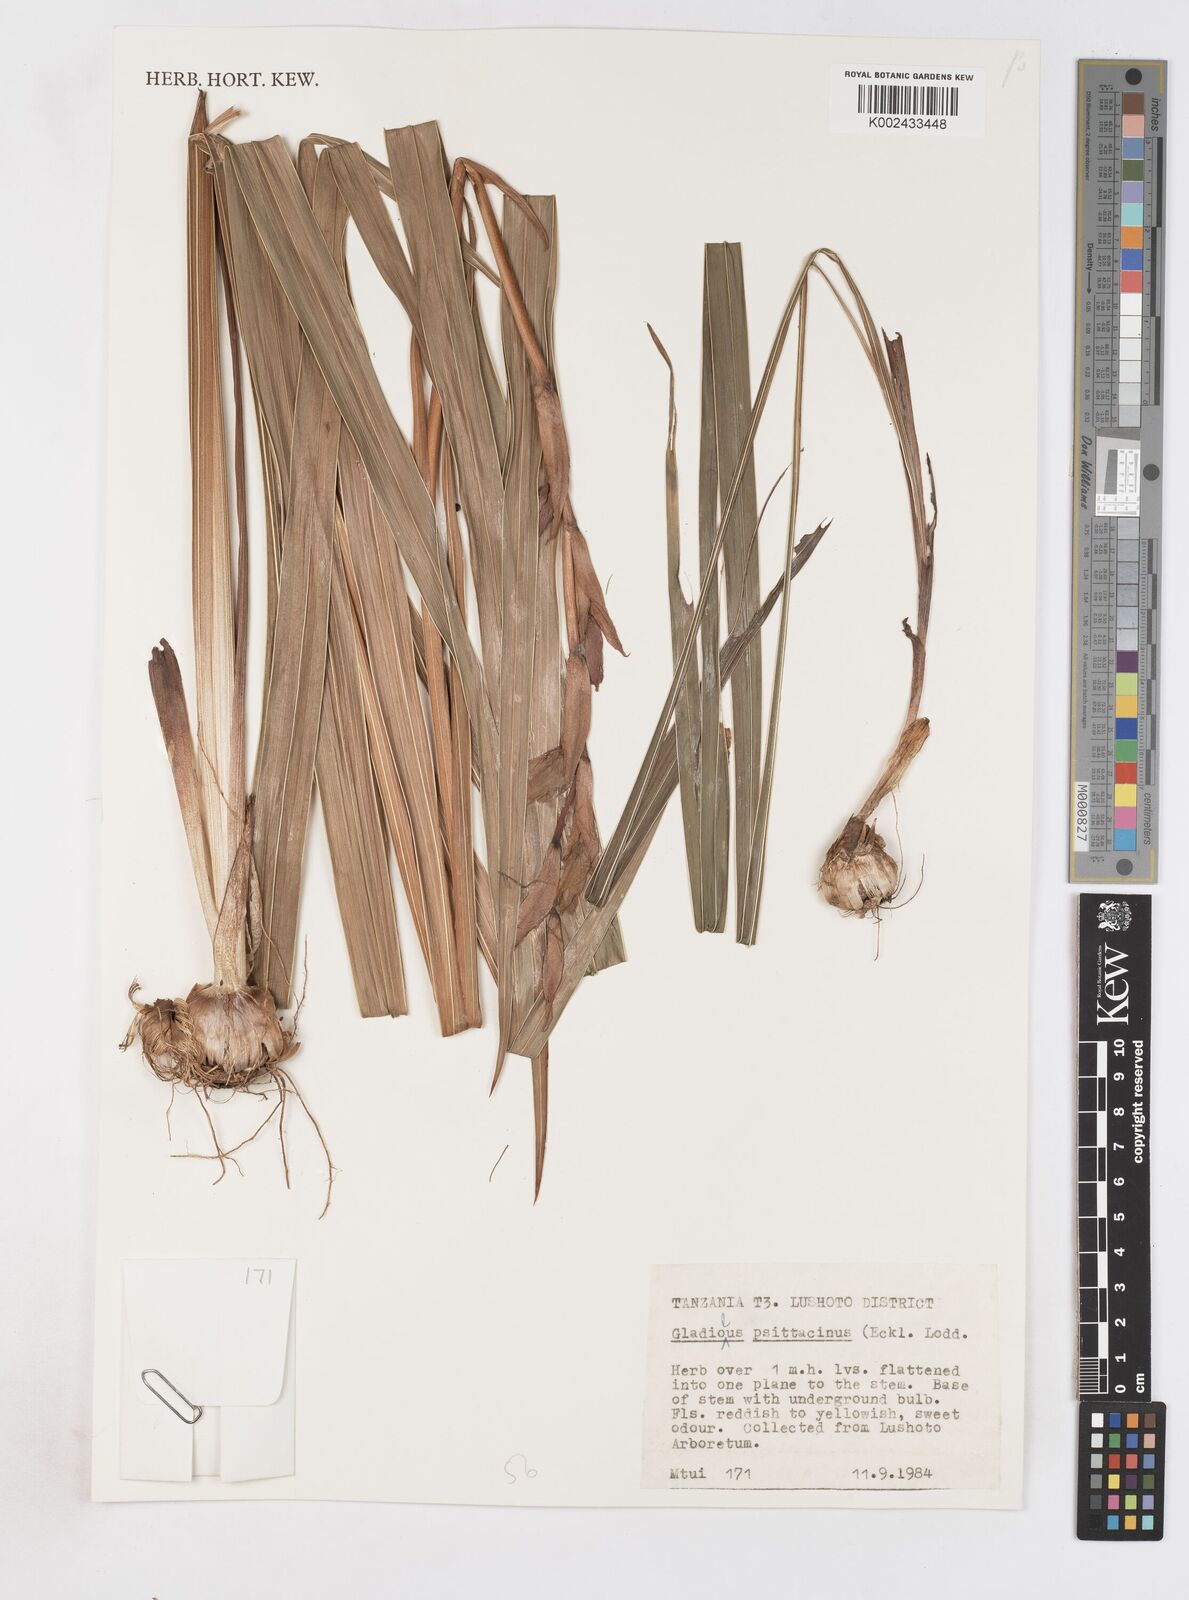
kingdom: Plantae
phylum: Tracheophyta
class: Liliopsida
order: Asparagales
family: Iridaceae
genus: Gladiolus
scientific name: Gladiolus dalenii
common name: Cornflag
